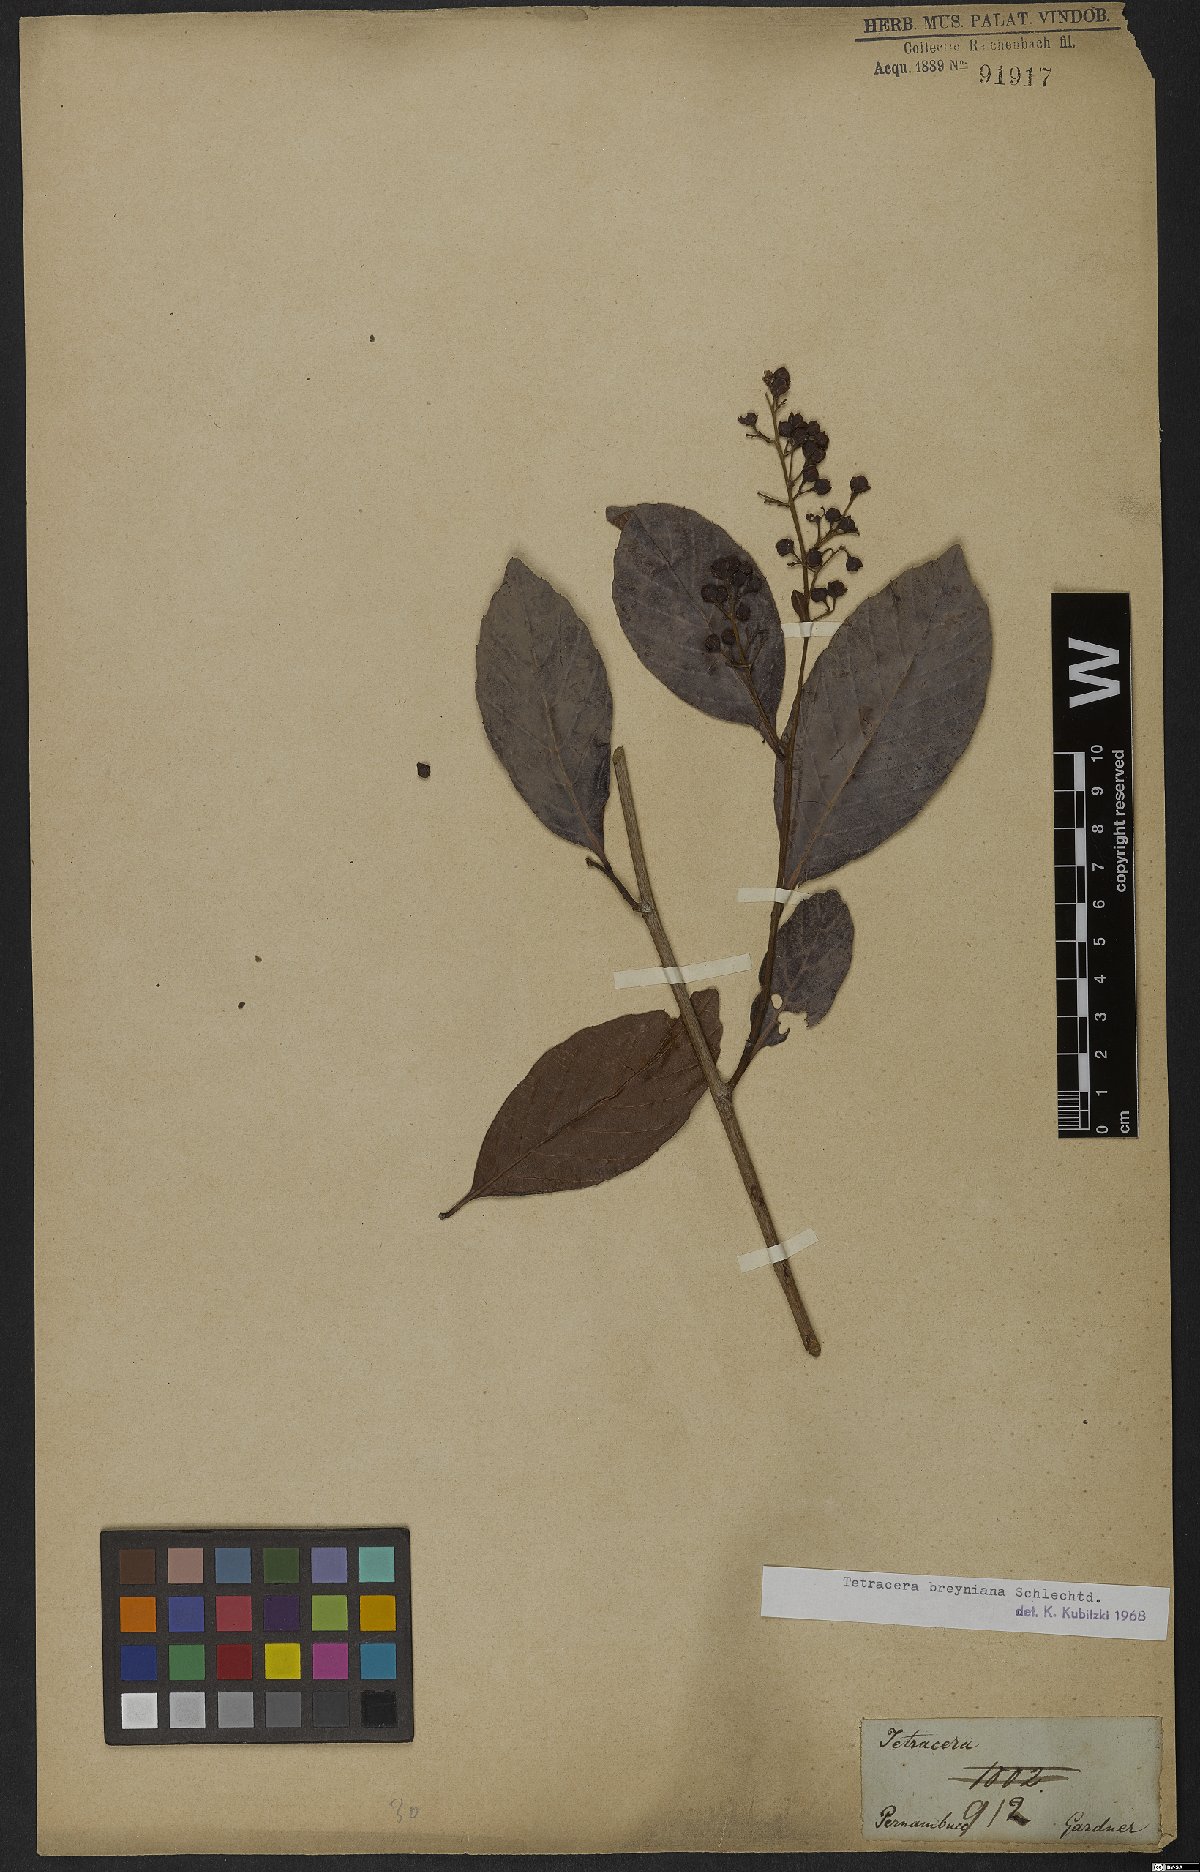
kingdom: Plantae
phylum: Tracheophyta
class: Magnoliopsida
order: Dilleniales
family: Dilleniaceae
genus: Tetracera
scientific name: Tetracera breyniana
